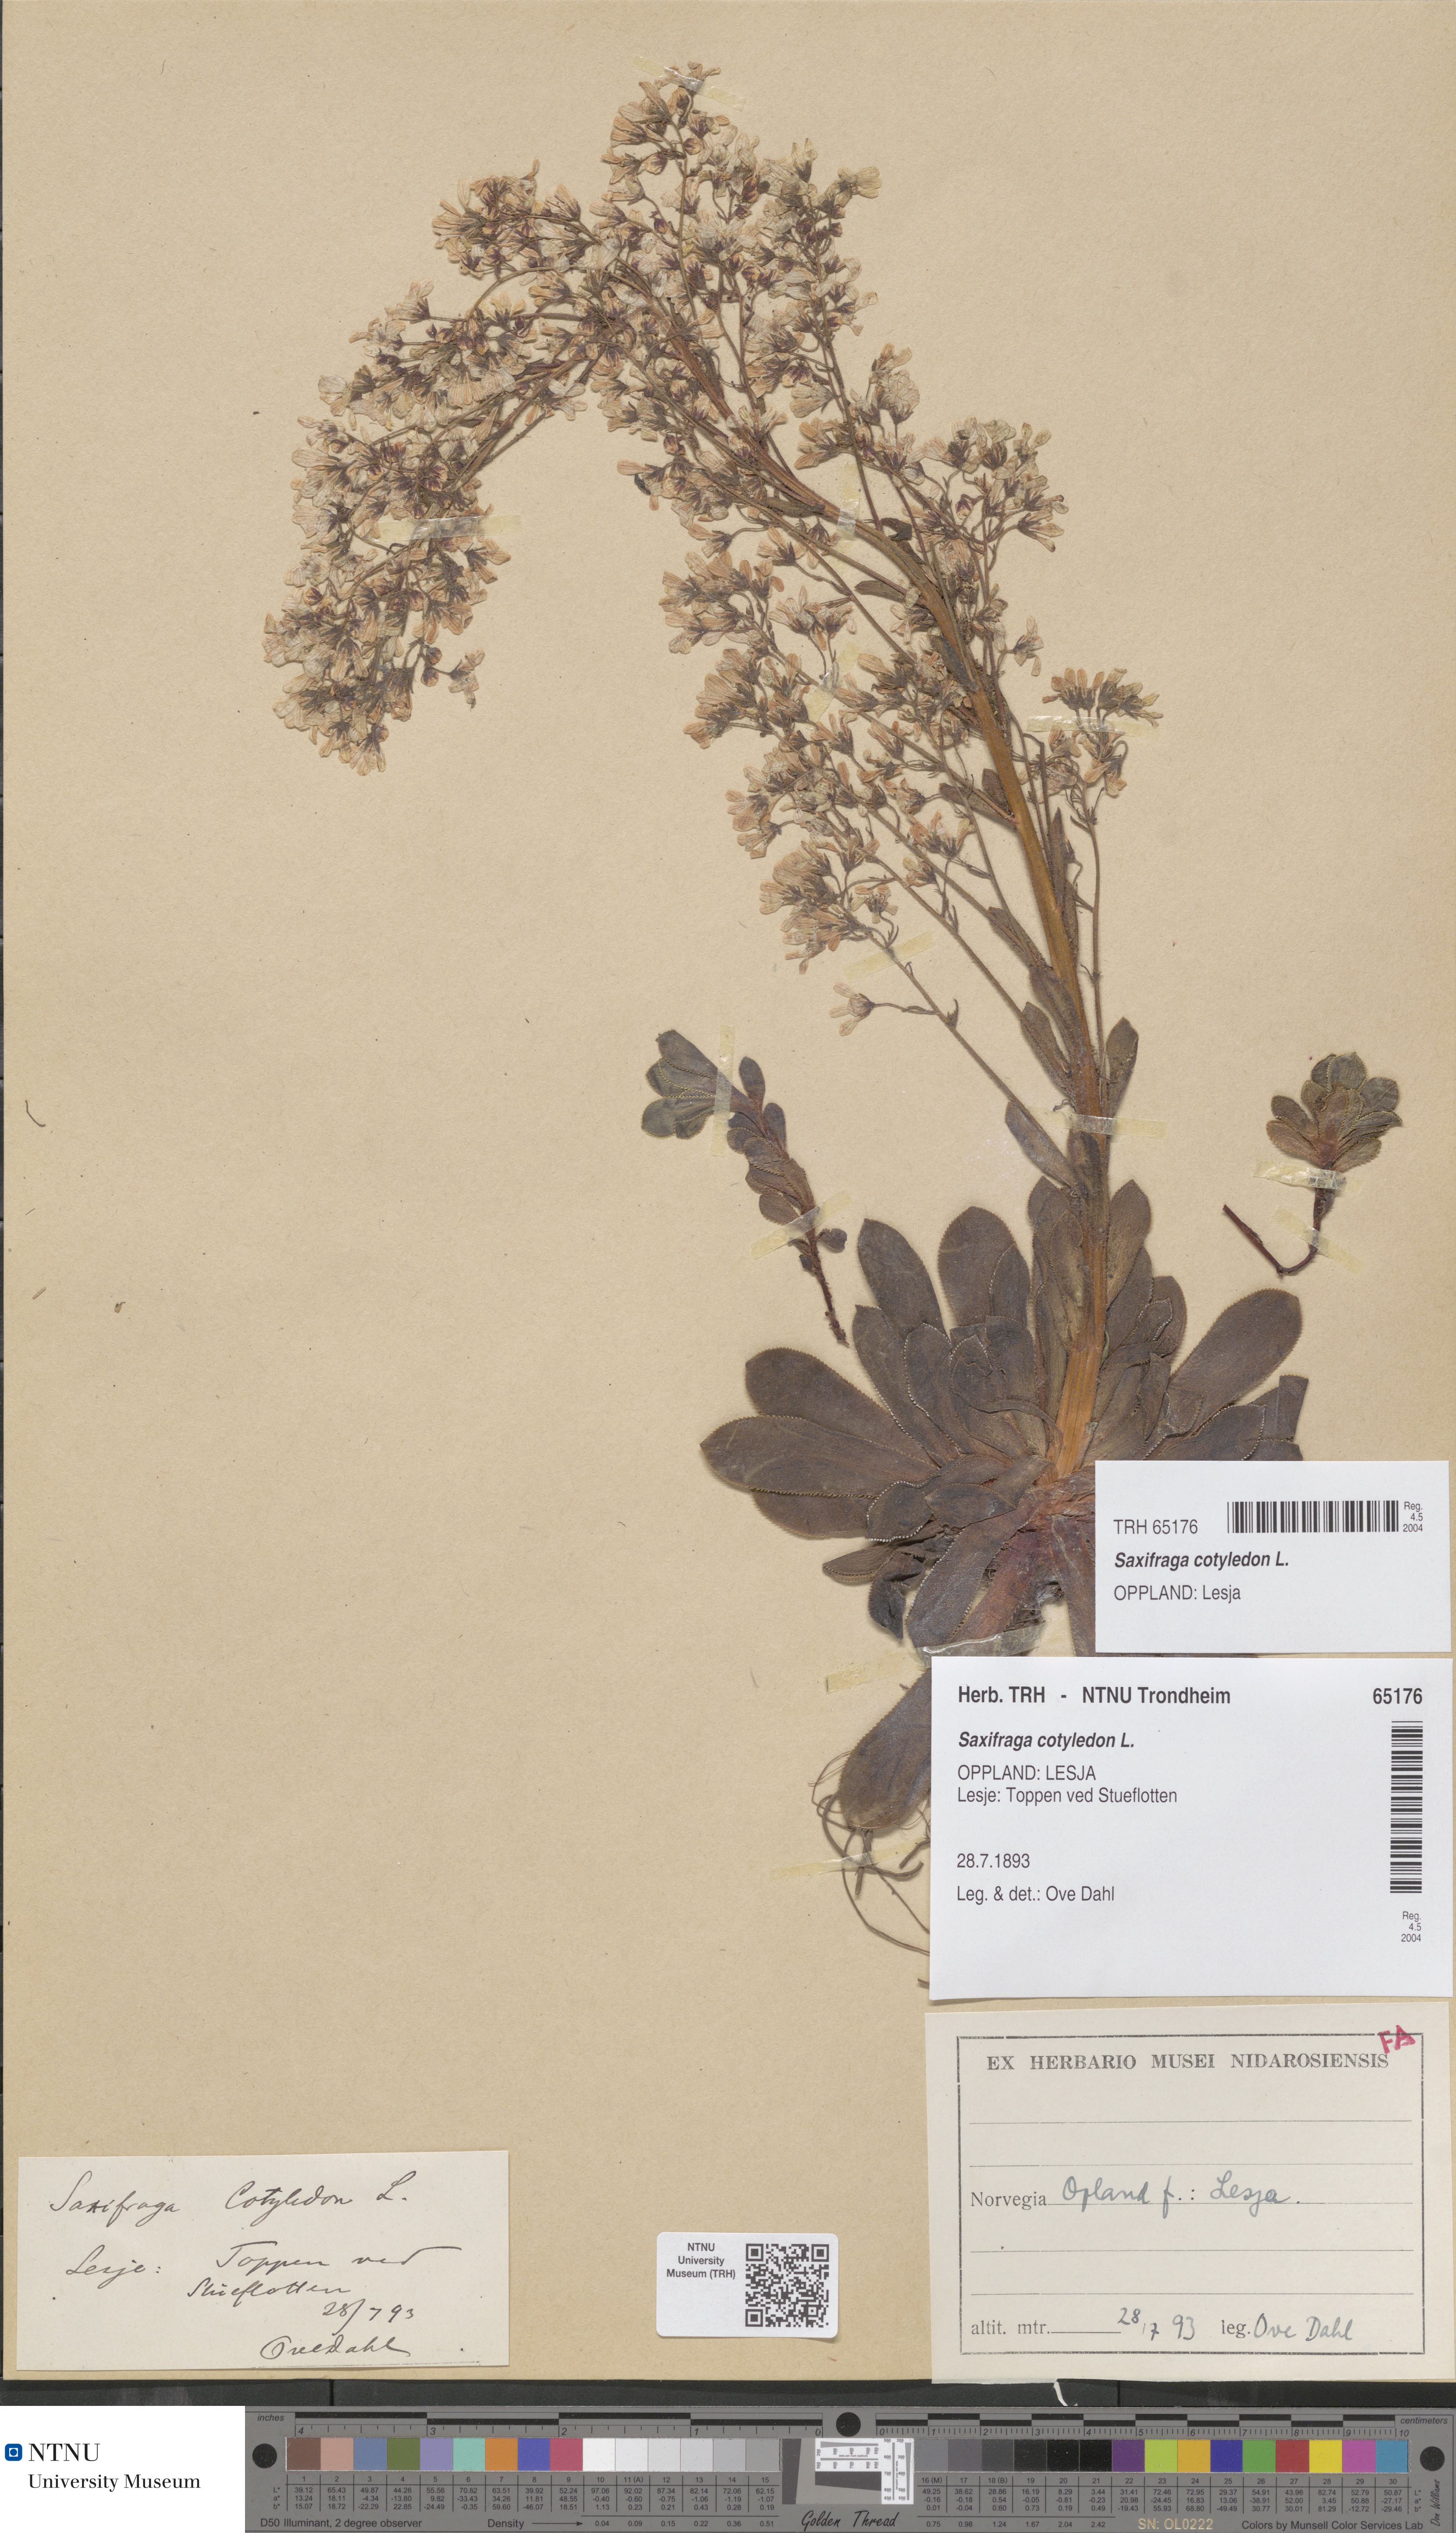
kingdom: Plantae
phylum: Tracheophyta
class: Magnoliopsida
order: Saxifragales
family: Saxifragaceae
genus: Saxifraga
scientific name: Saxifraga cotyledon
